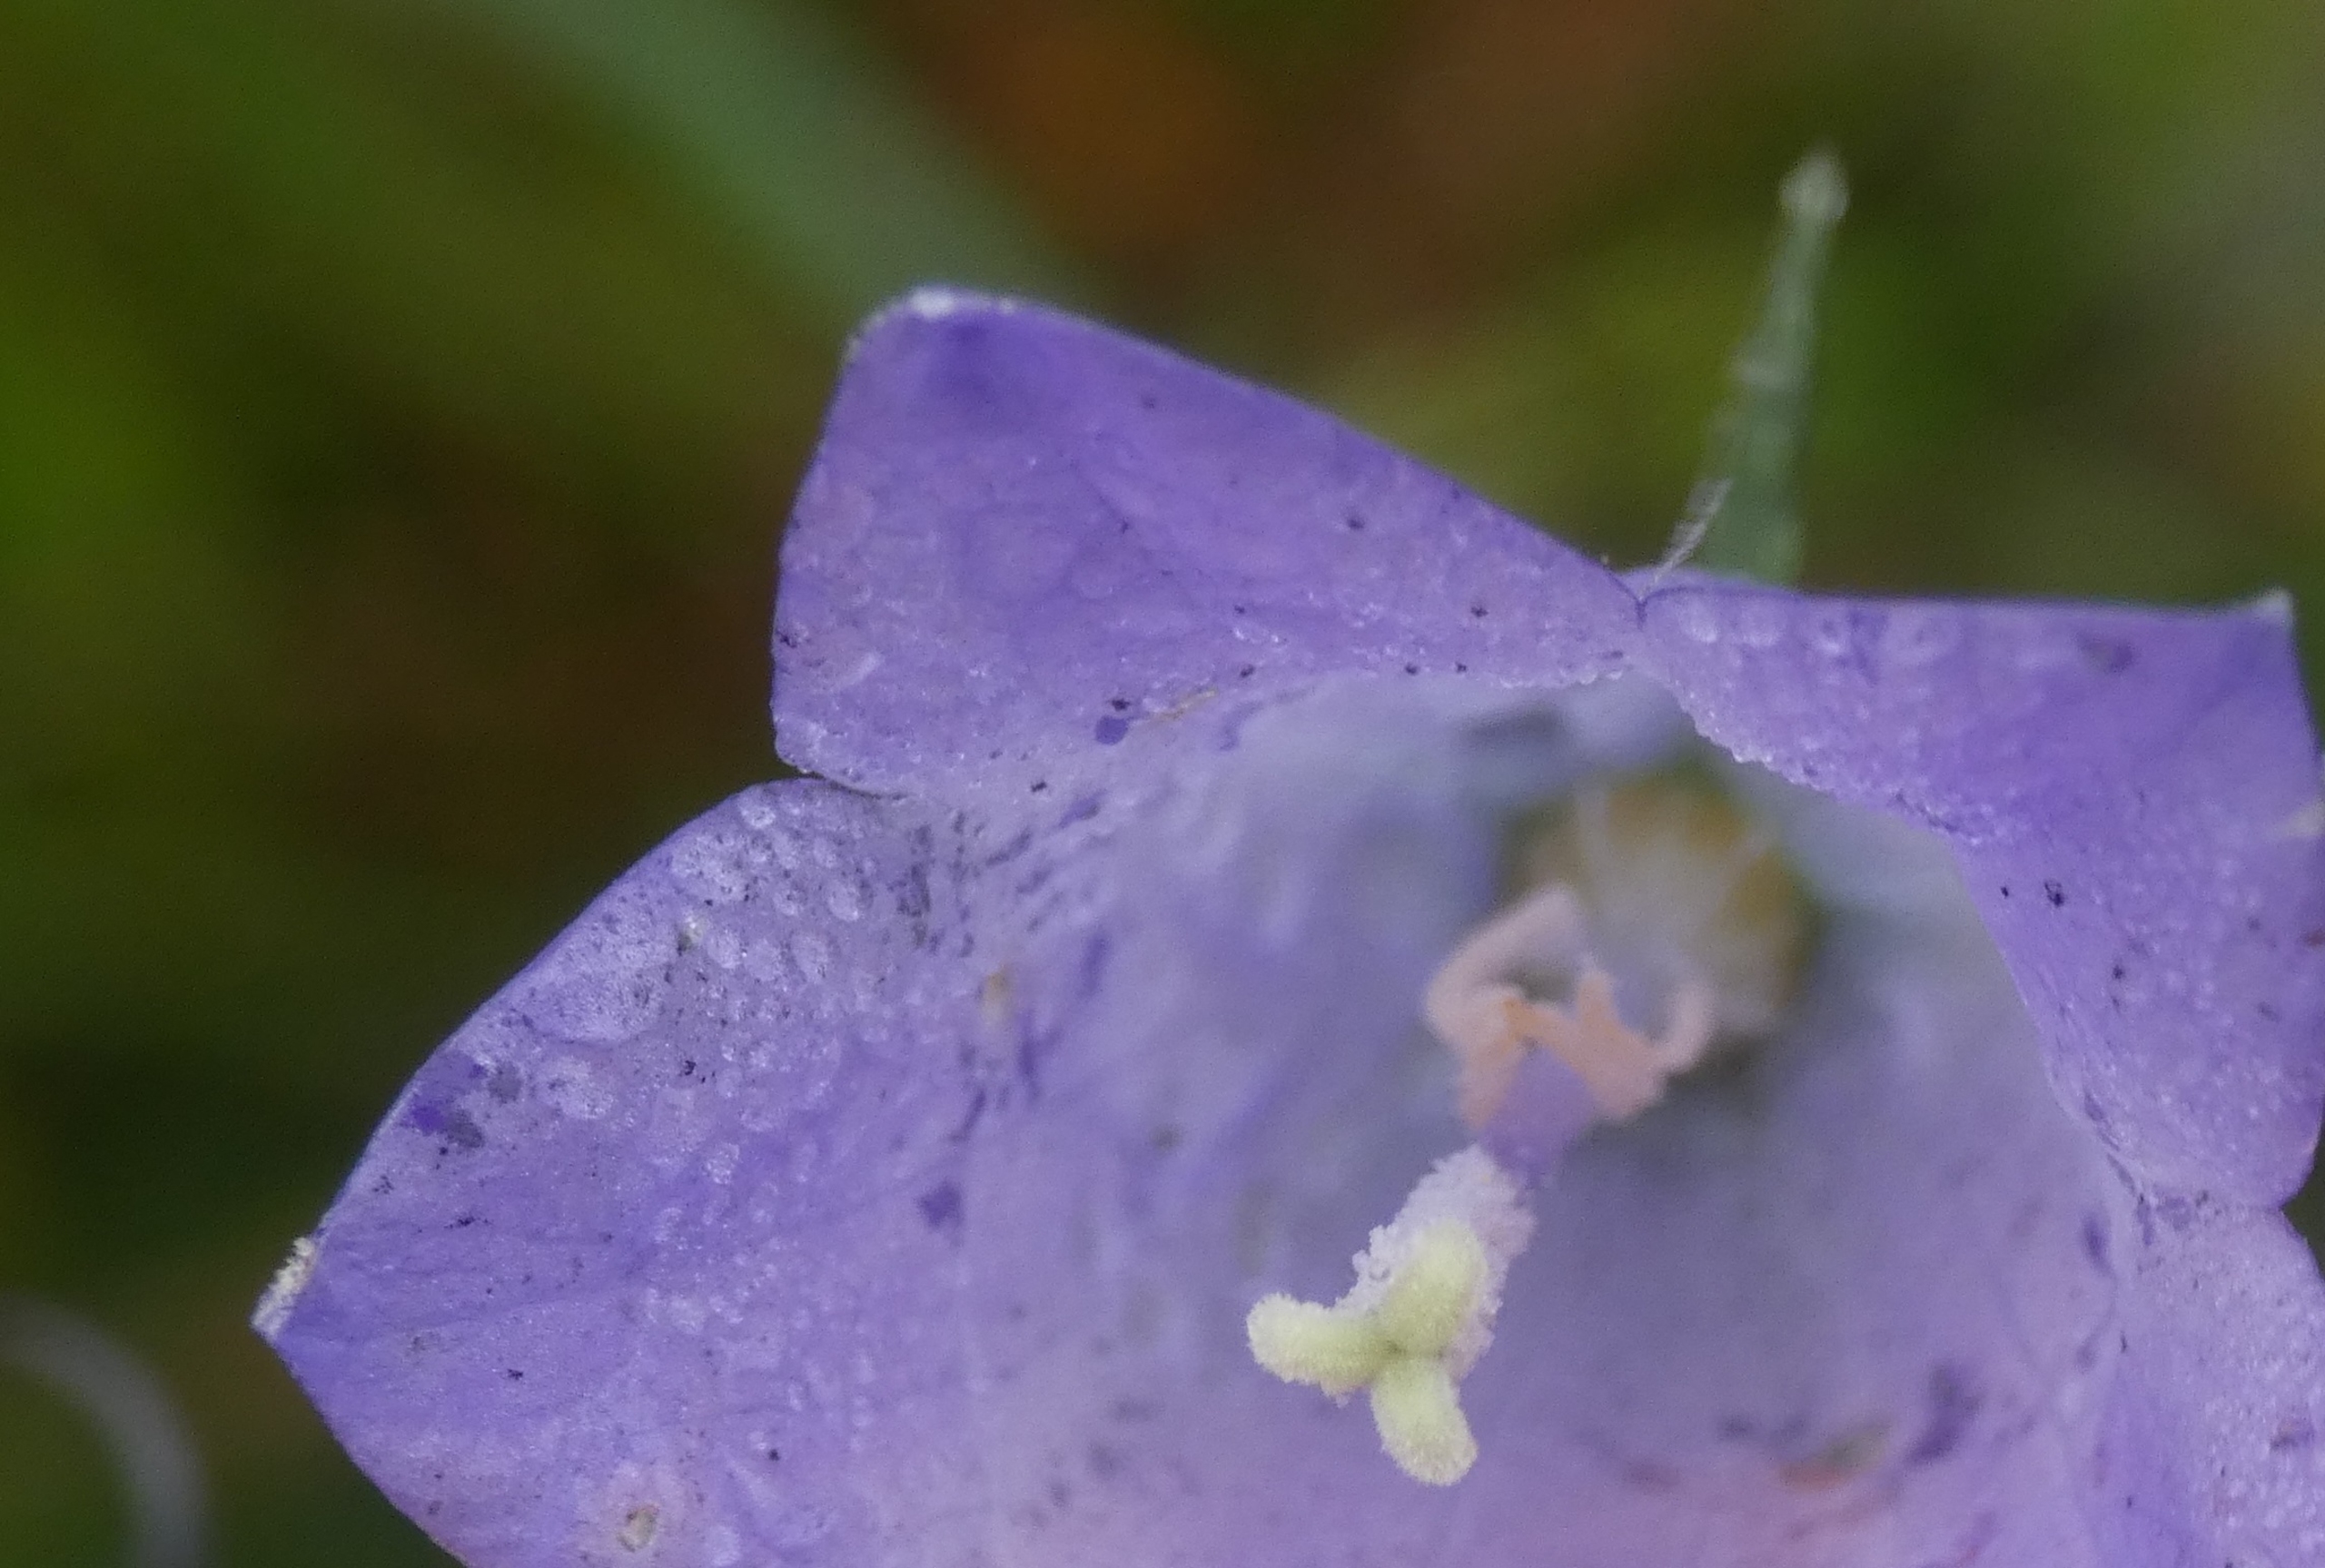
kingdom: Plantae
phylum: Tracheophyta
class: Magnoliopsida
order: Asterales
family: Campanulaceae
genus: Campanula
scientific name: Campanula rotundifolia
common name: Liden klokke
